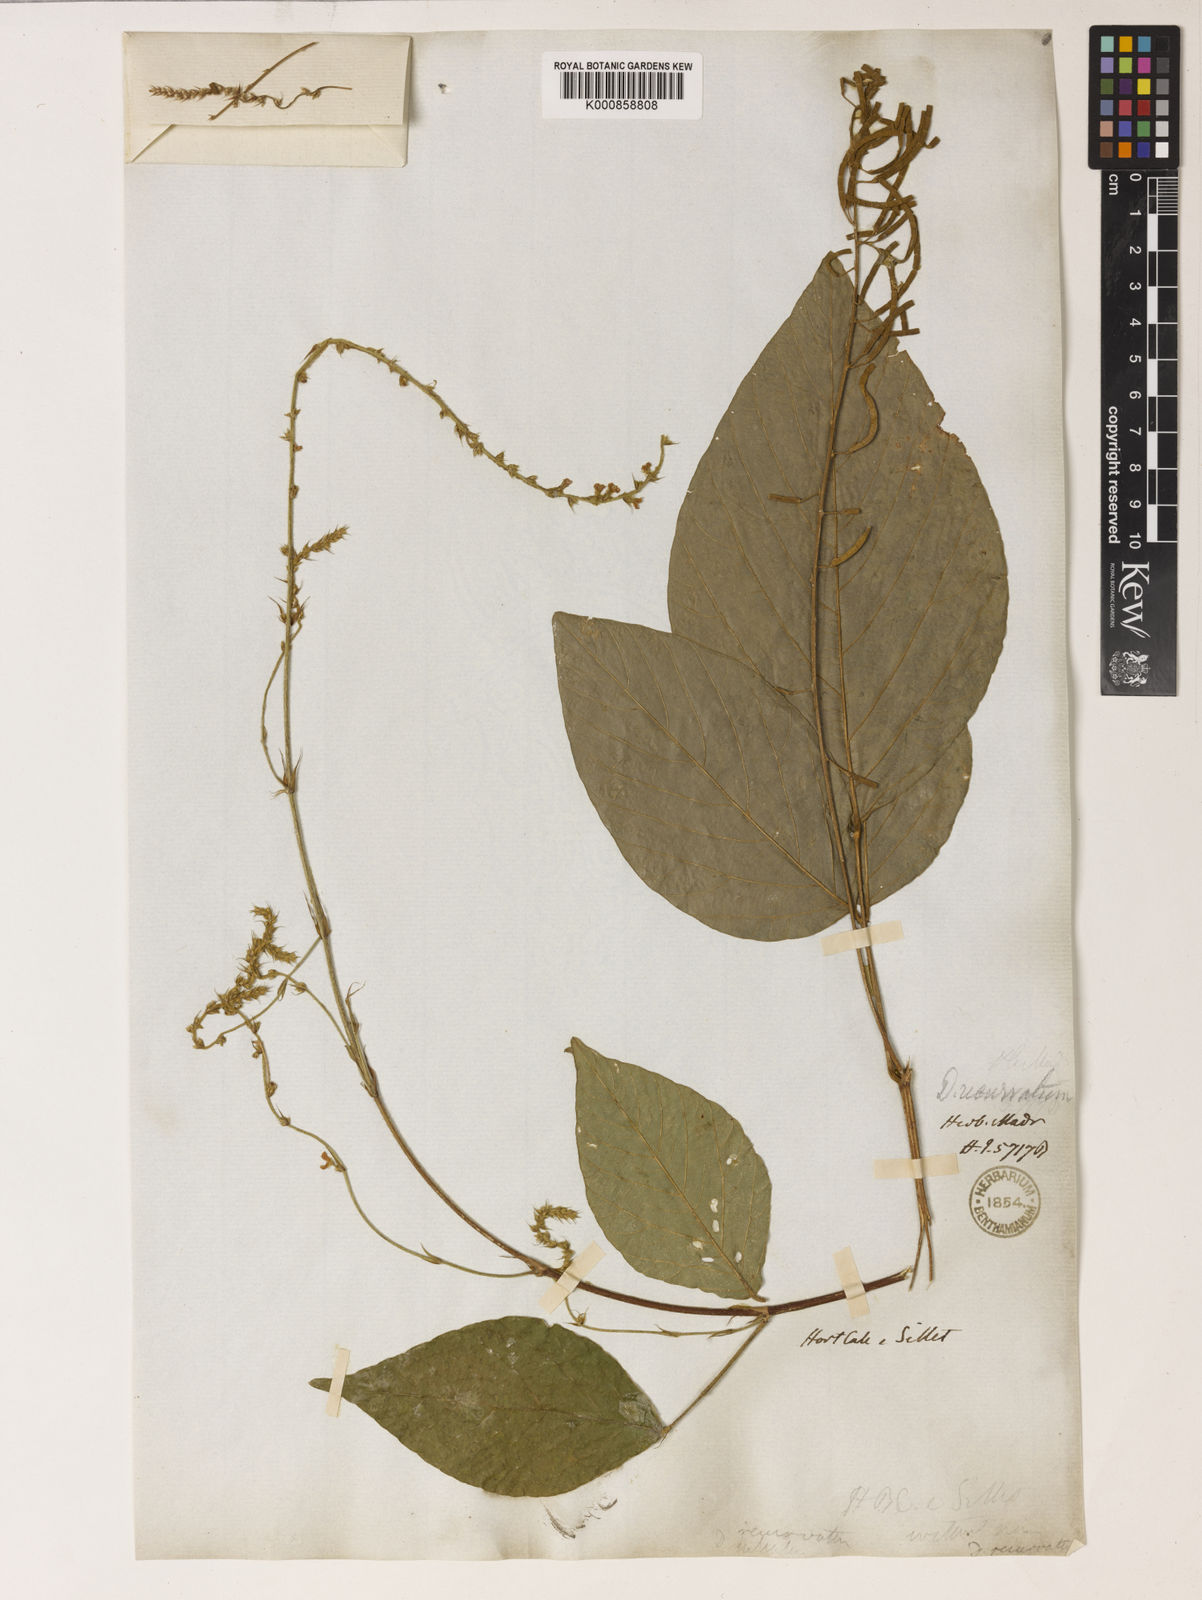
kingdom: Plantae
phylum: Tracheophyta
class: Magnoliopsida
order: Fabales
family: Fabaceae
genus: Sohmaea
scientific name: Sohmaea laxiflora
